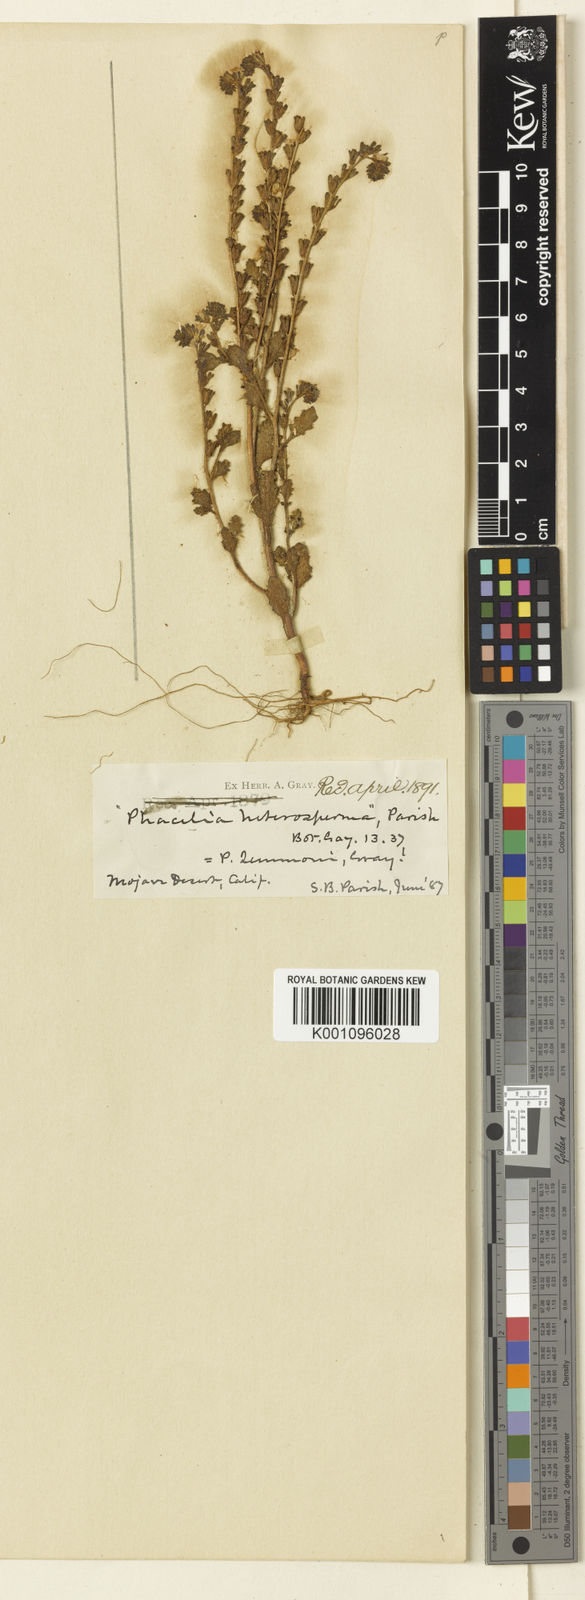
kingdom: Plantae
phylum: Tracheophyta
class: Magnoliopsida
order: Boraginales
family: Hydrophyllaceae
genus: Phacelia
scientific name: Phacelia lemmonii
